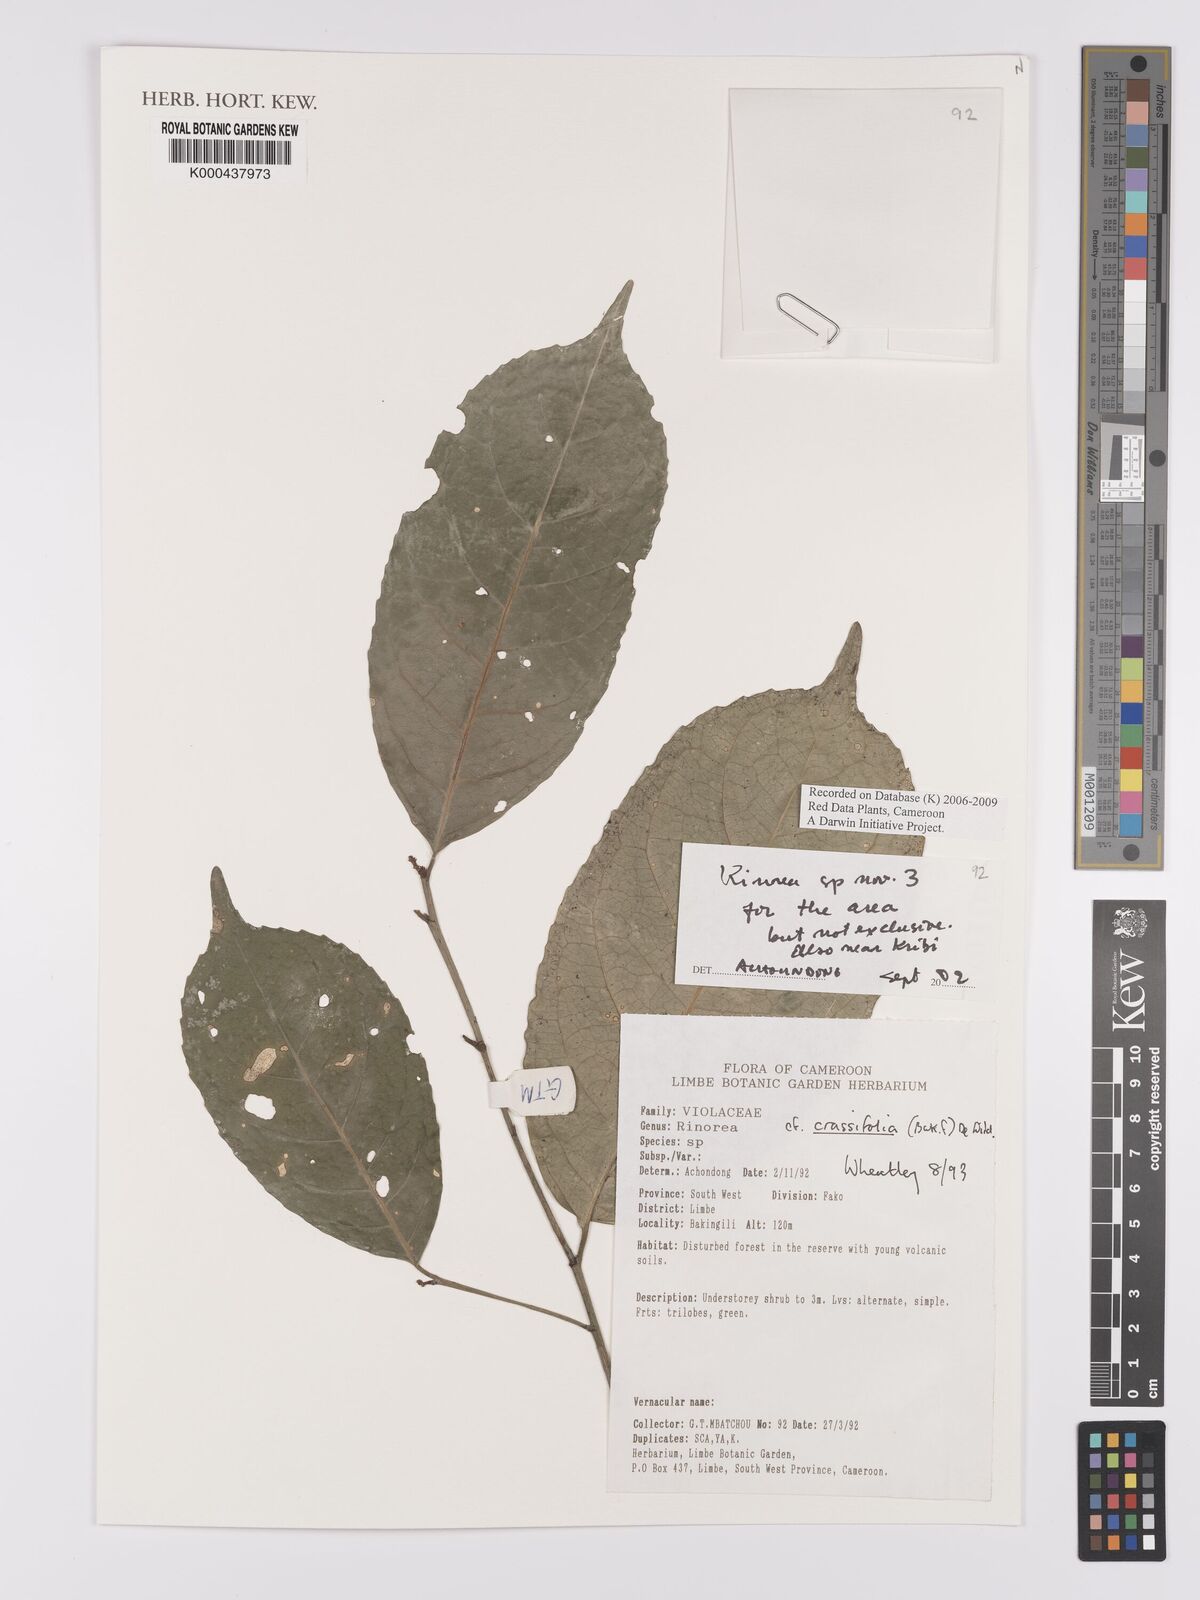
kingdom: Plantae
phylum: Tracheophyta
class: Magnoliopsida
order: Malpighiales
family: Violaceae
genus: Rinorea
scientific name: Rinorea dewitii
